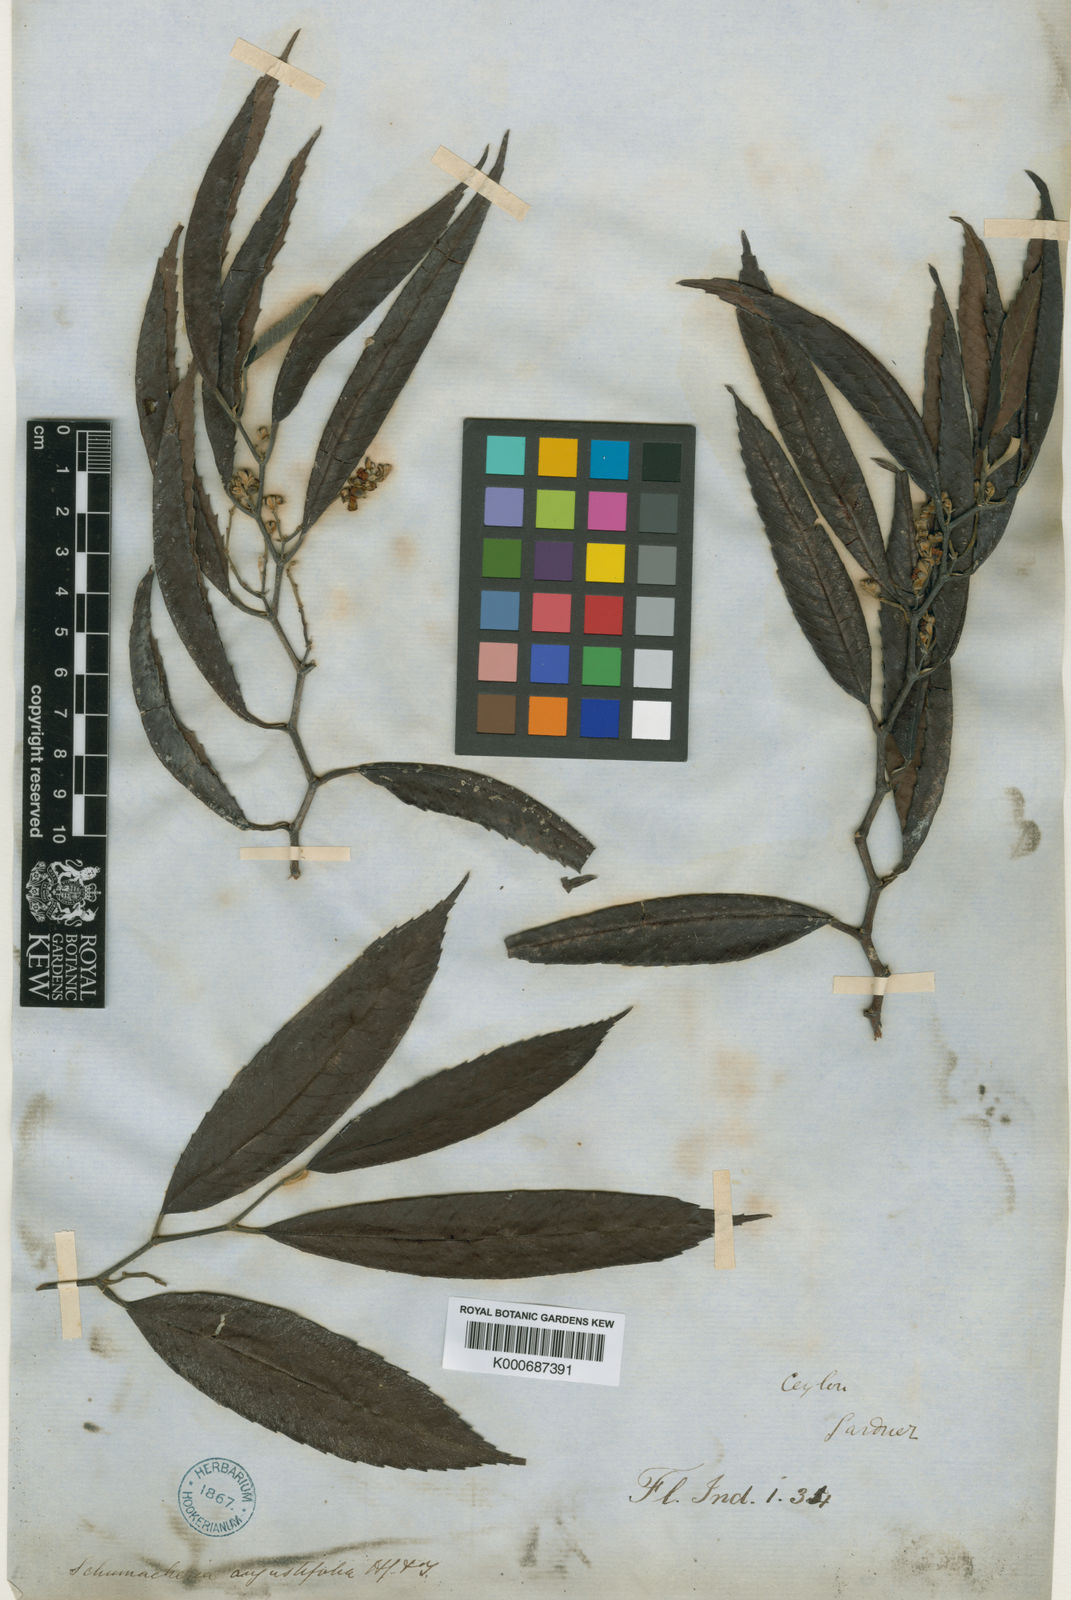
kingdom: Plantae
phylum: Tracheophyta
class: Magnoliopsida
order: Dilleniales
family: Dilleniaceae
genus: Schumacheria
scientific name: Schumacheria angustifolia
